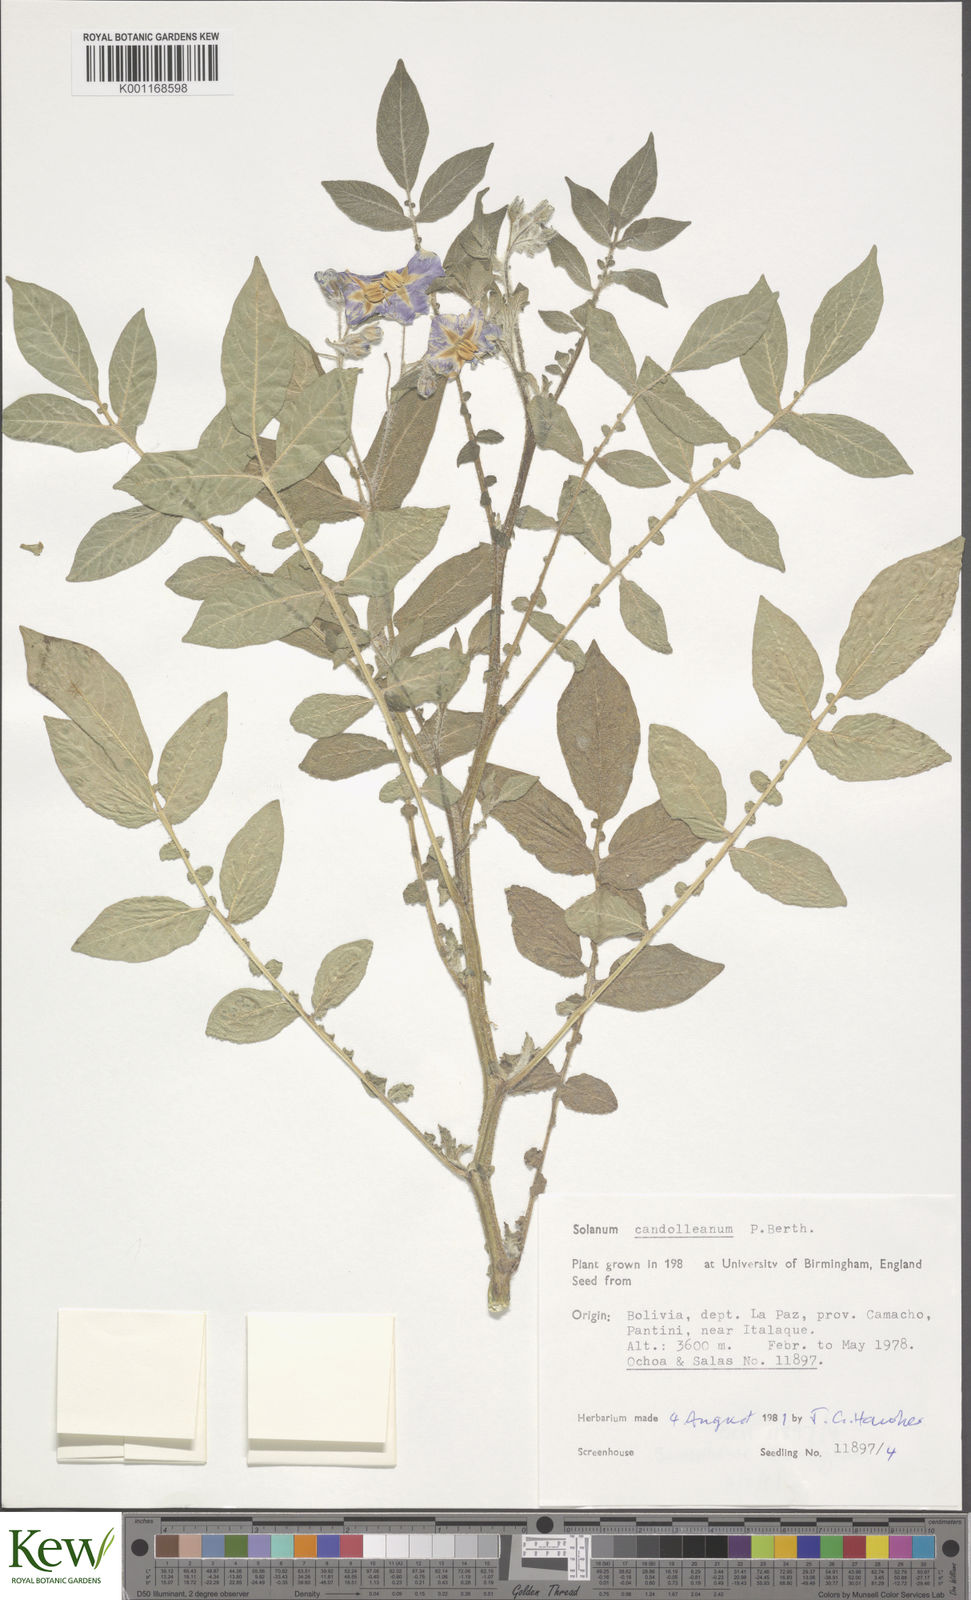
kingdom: Plantae
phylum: Tracheophyta
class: Magnoliopsida
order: Solanales
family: Solanaceae
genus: Solanum
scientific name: Solanum candolleanum
